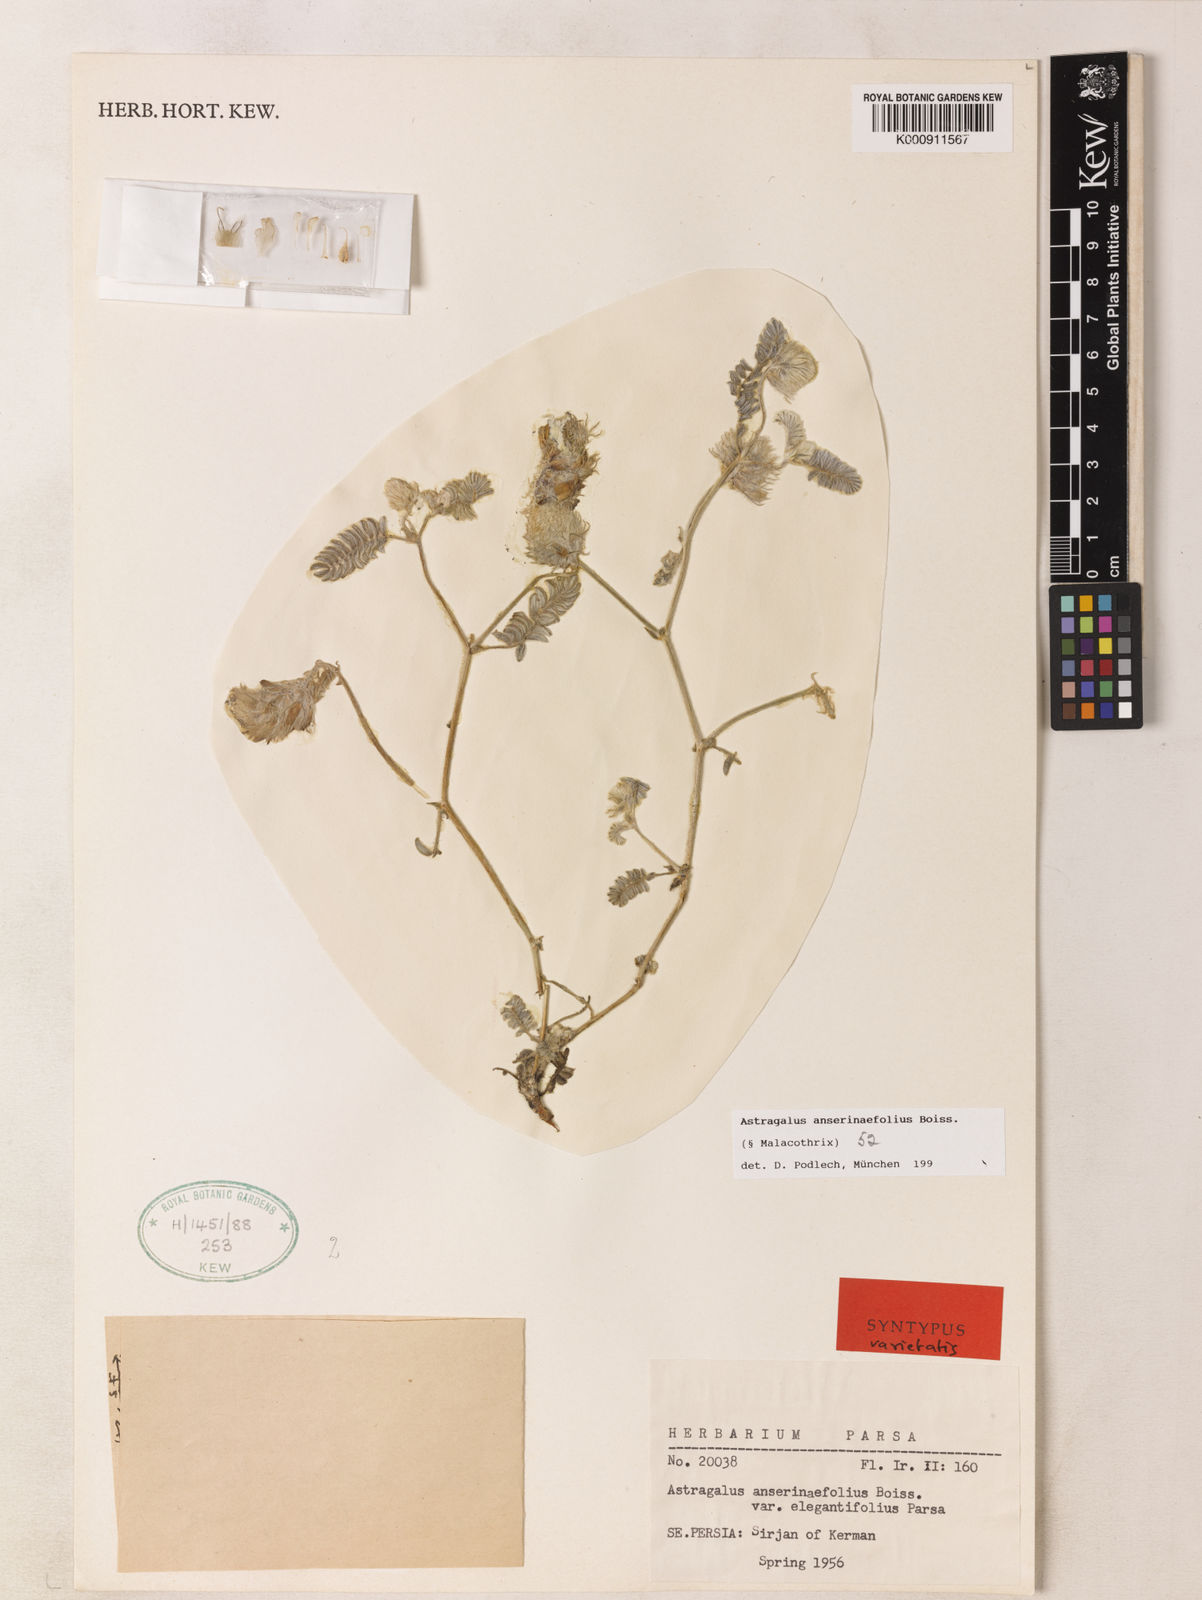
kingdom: Plantae
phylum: Tracheophyta
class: Magnoliopsida
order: Fabales
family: Fabaceae
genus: Astragalus
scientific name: Astragalus anserinifolius
